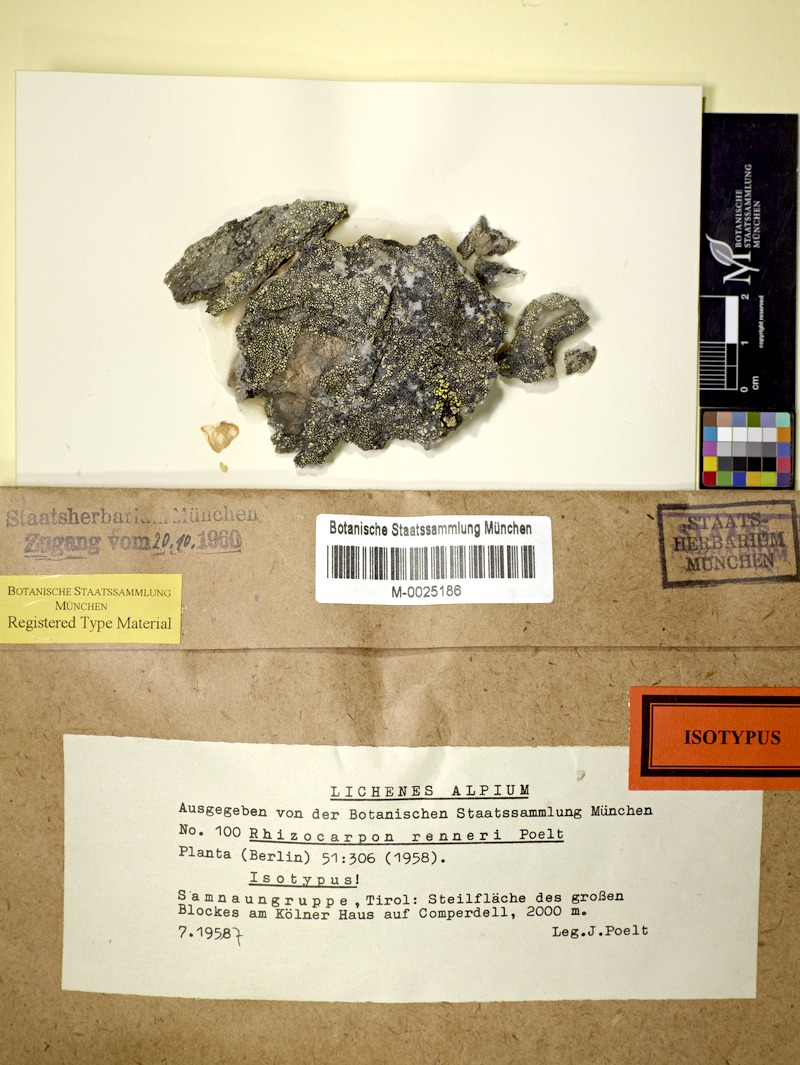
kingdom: Fungi
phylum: Ascomycota
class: Lecanoromycetes
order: Rhizocarpales
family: Rhizocarpaceae
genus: Rhizocarpon
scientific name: Rhizocarpon renneri
